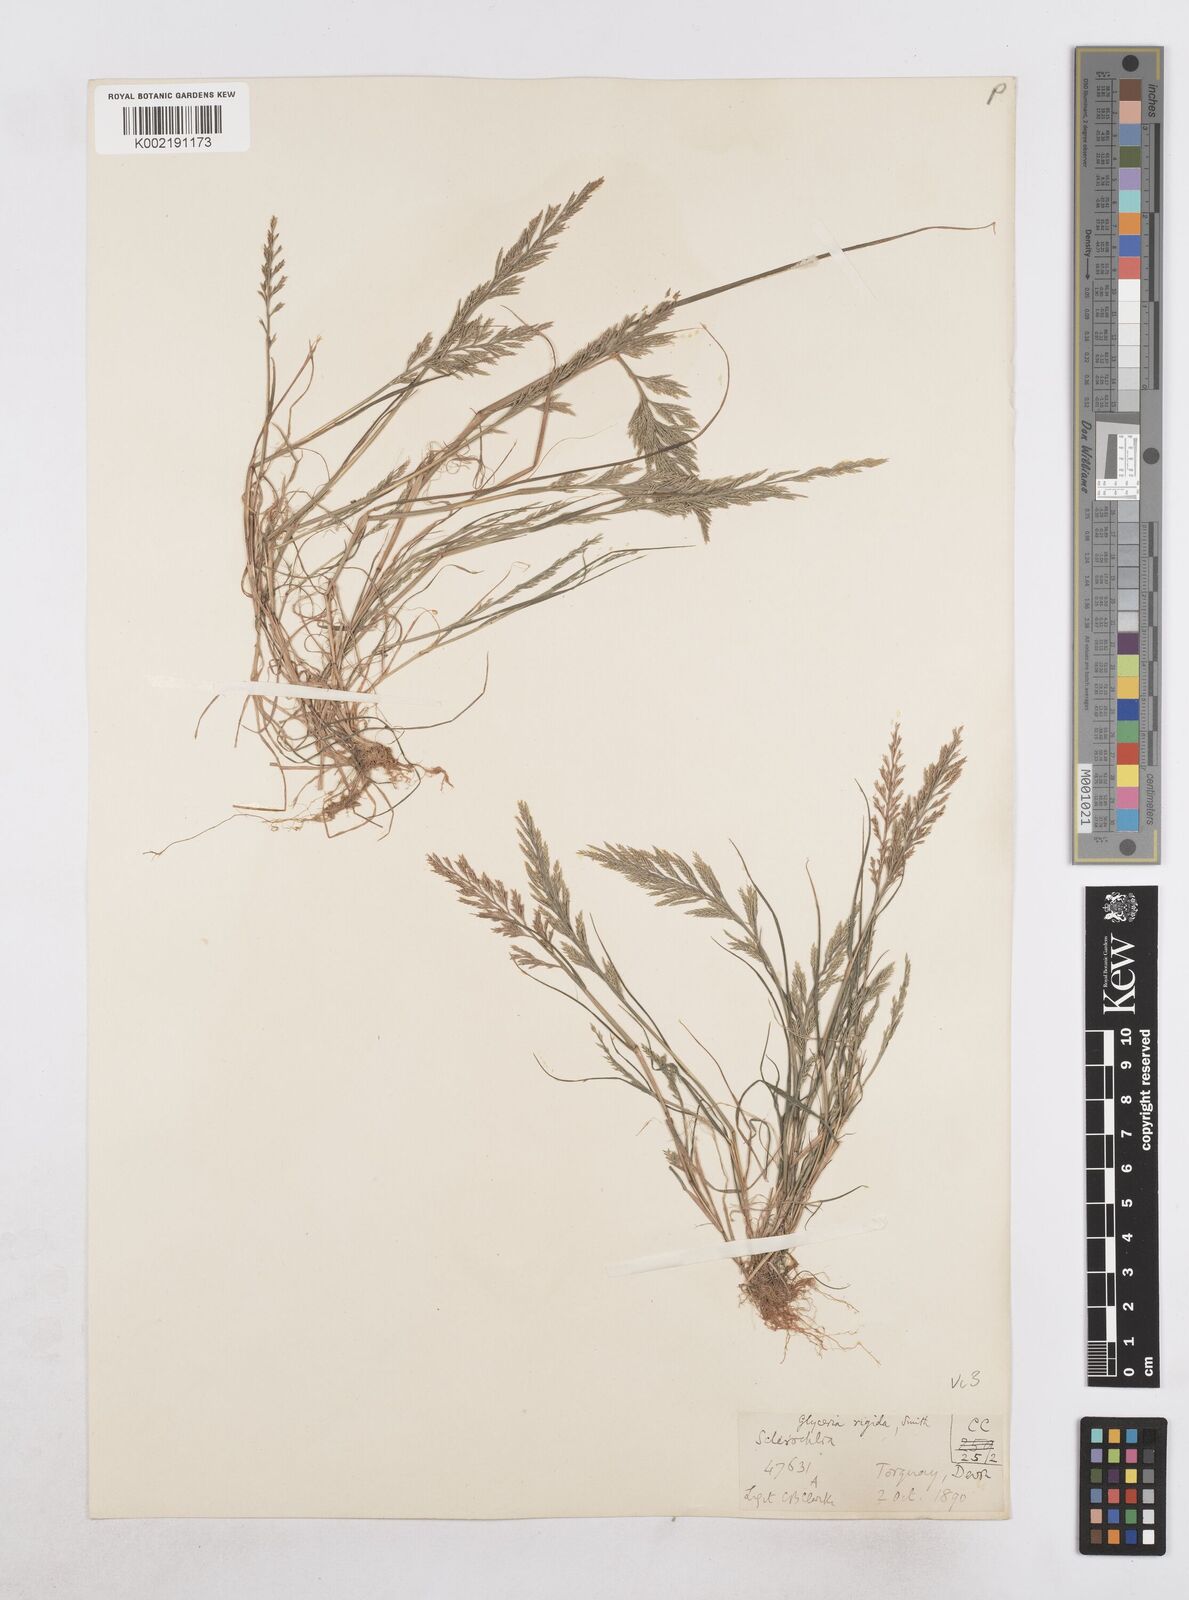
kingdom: Plantae
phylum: Tracheophyta
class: Liliopsida
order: Poales
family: Poaceae
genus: Catapodium
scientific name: Catapodium rigidum
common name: Fern-grass
